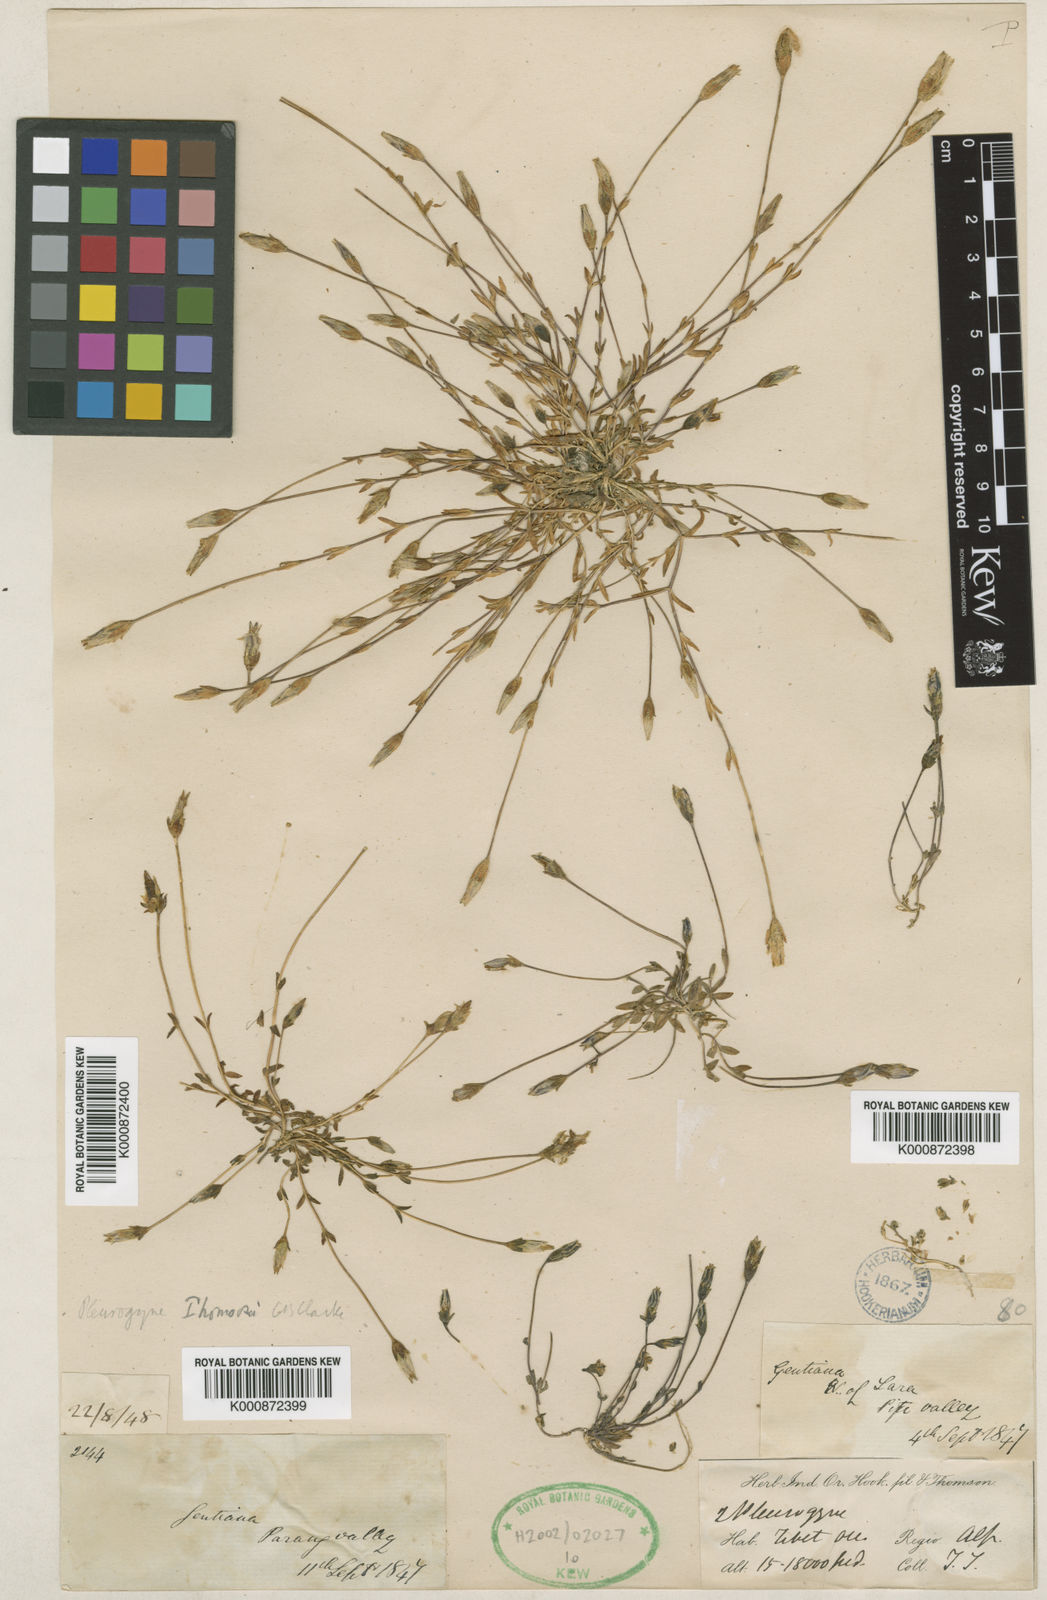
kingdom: Plantae
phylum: Tracheophyta
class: Magnoliopsida
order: Gentianales
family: Gentianaceae
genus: Lomatogonium
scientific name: Lomatogonium brachyantherum
